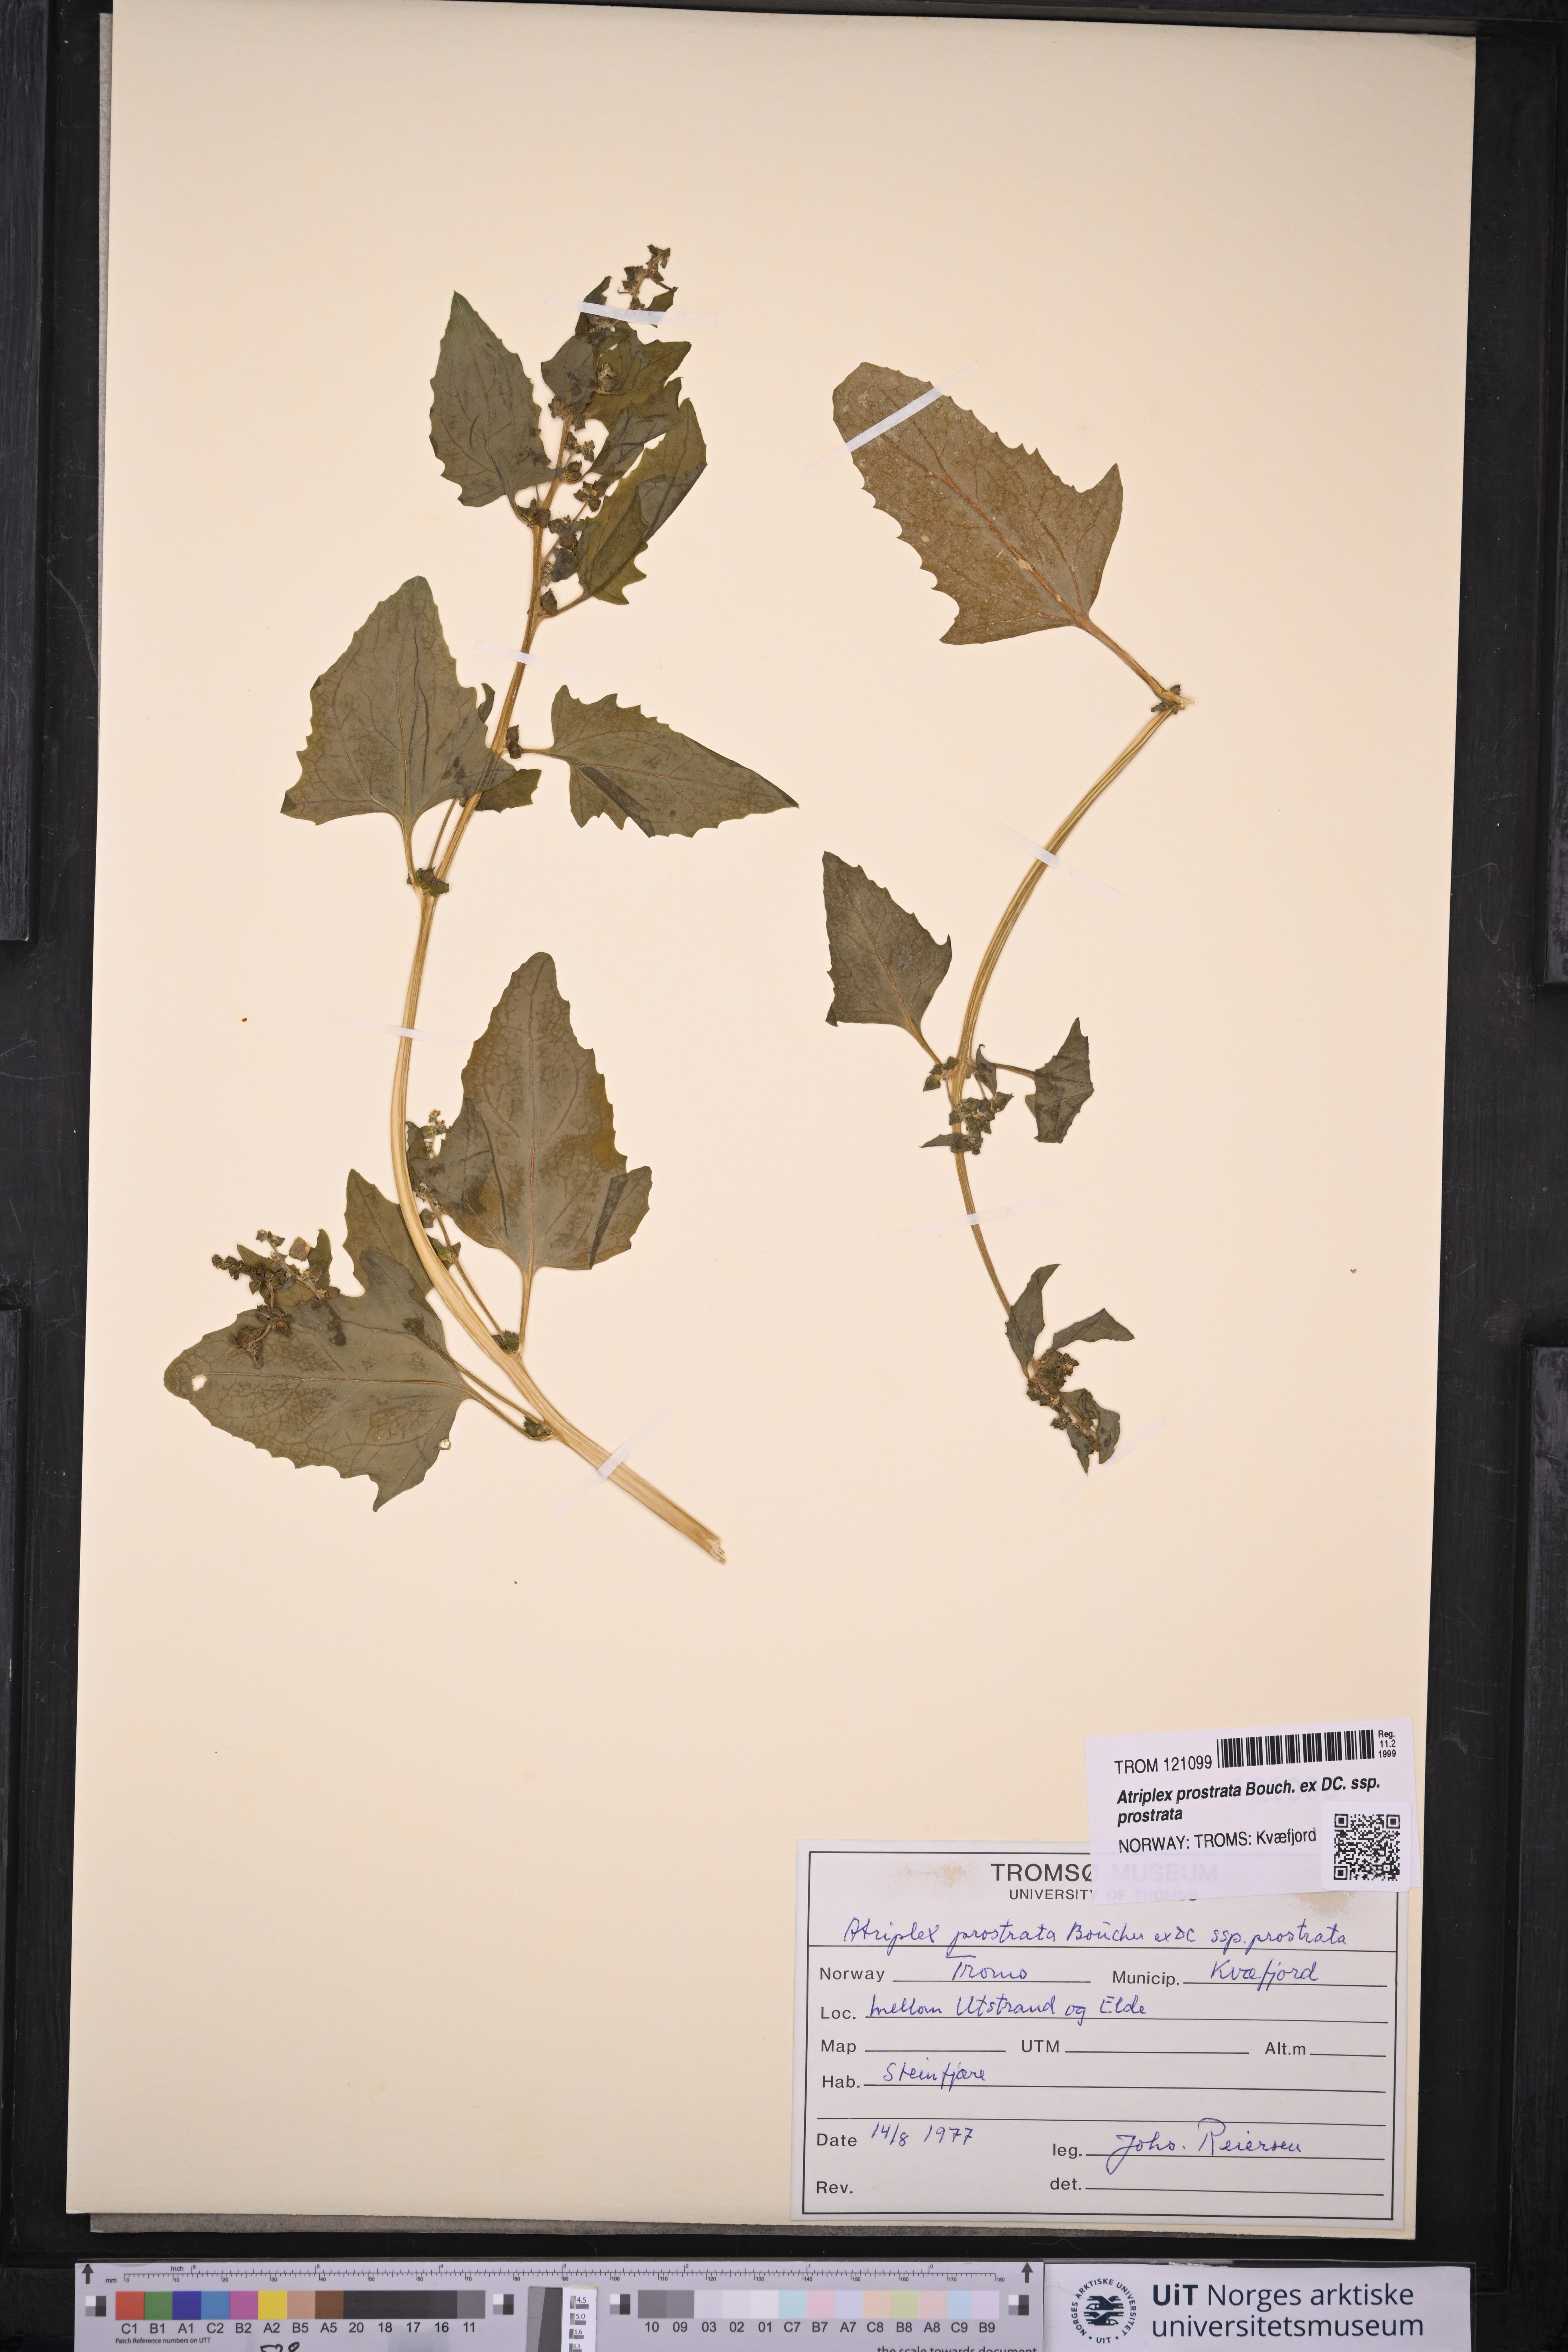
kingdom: Plantae
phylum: Tracheophyta
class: Magnoliopsida
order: Caryophyllales
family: Amaranthaceae
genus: Atriplex
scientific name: Atriplex prostrata
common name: Spear-leaved orache
